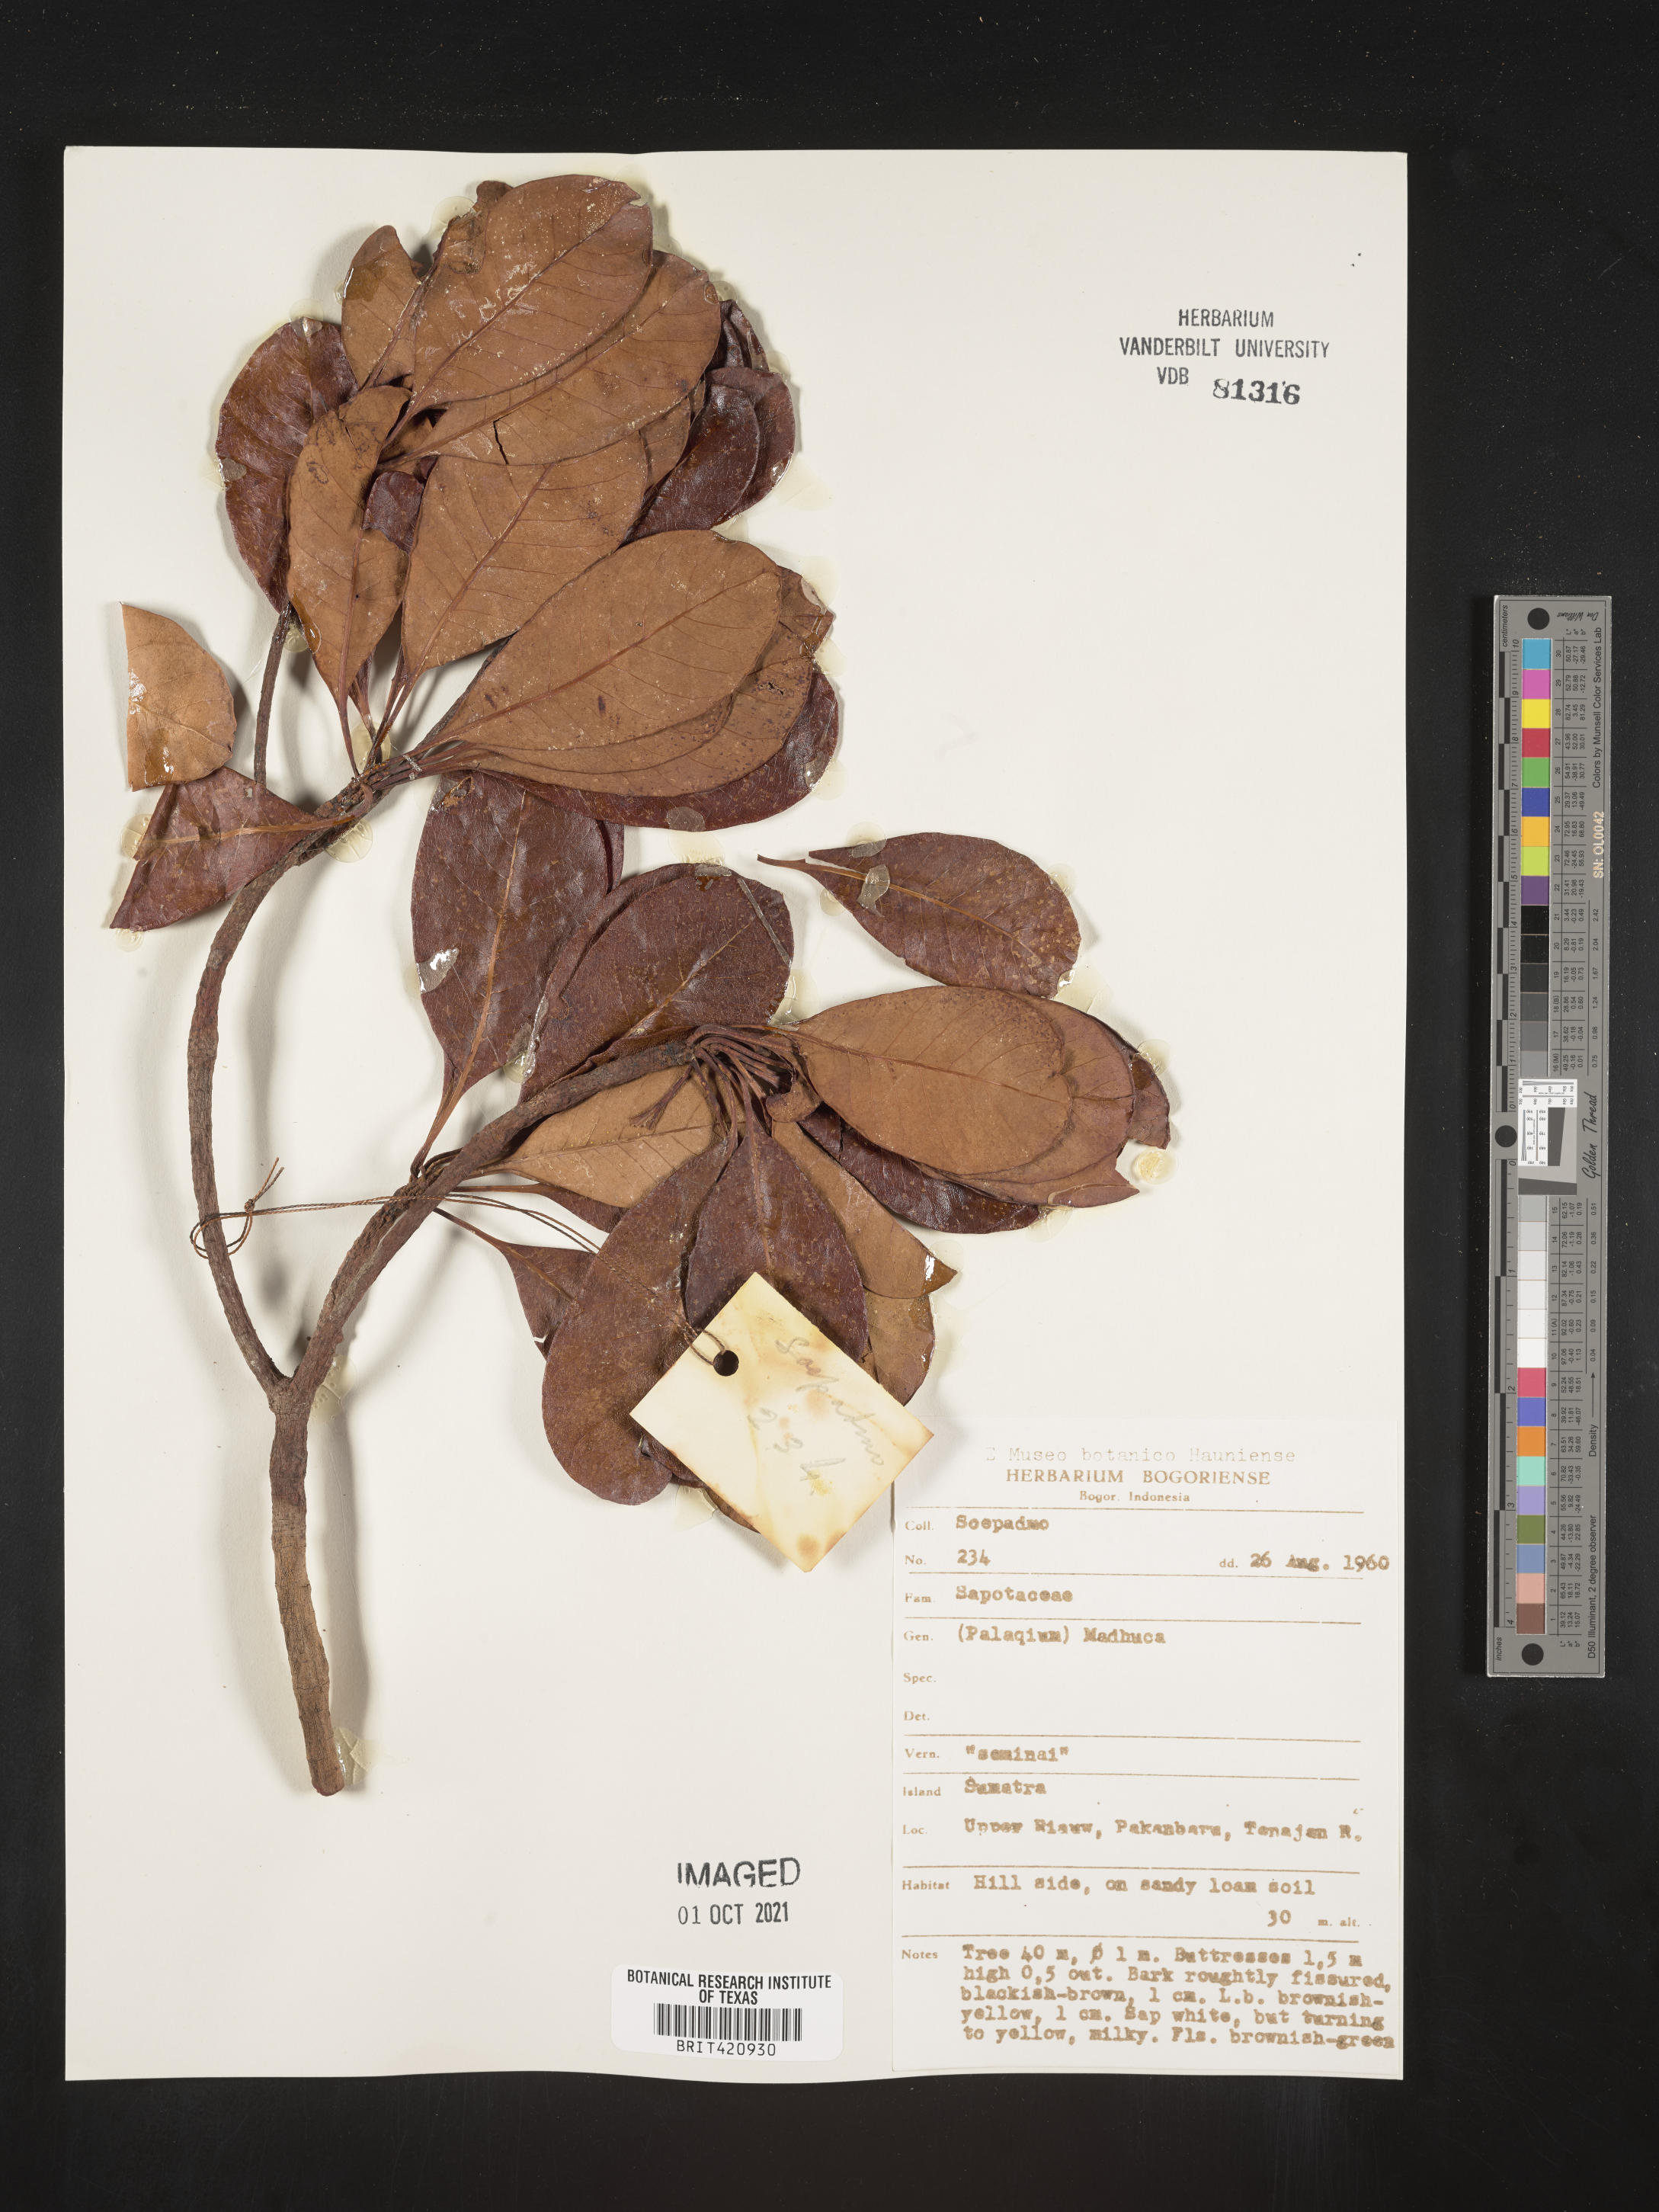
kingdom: Plantae
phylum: Tracheophyta
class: Magnoliopsida
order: Ericales
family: Sapotaceae
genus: Palaquium
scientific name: Palaquium
